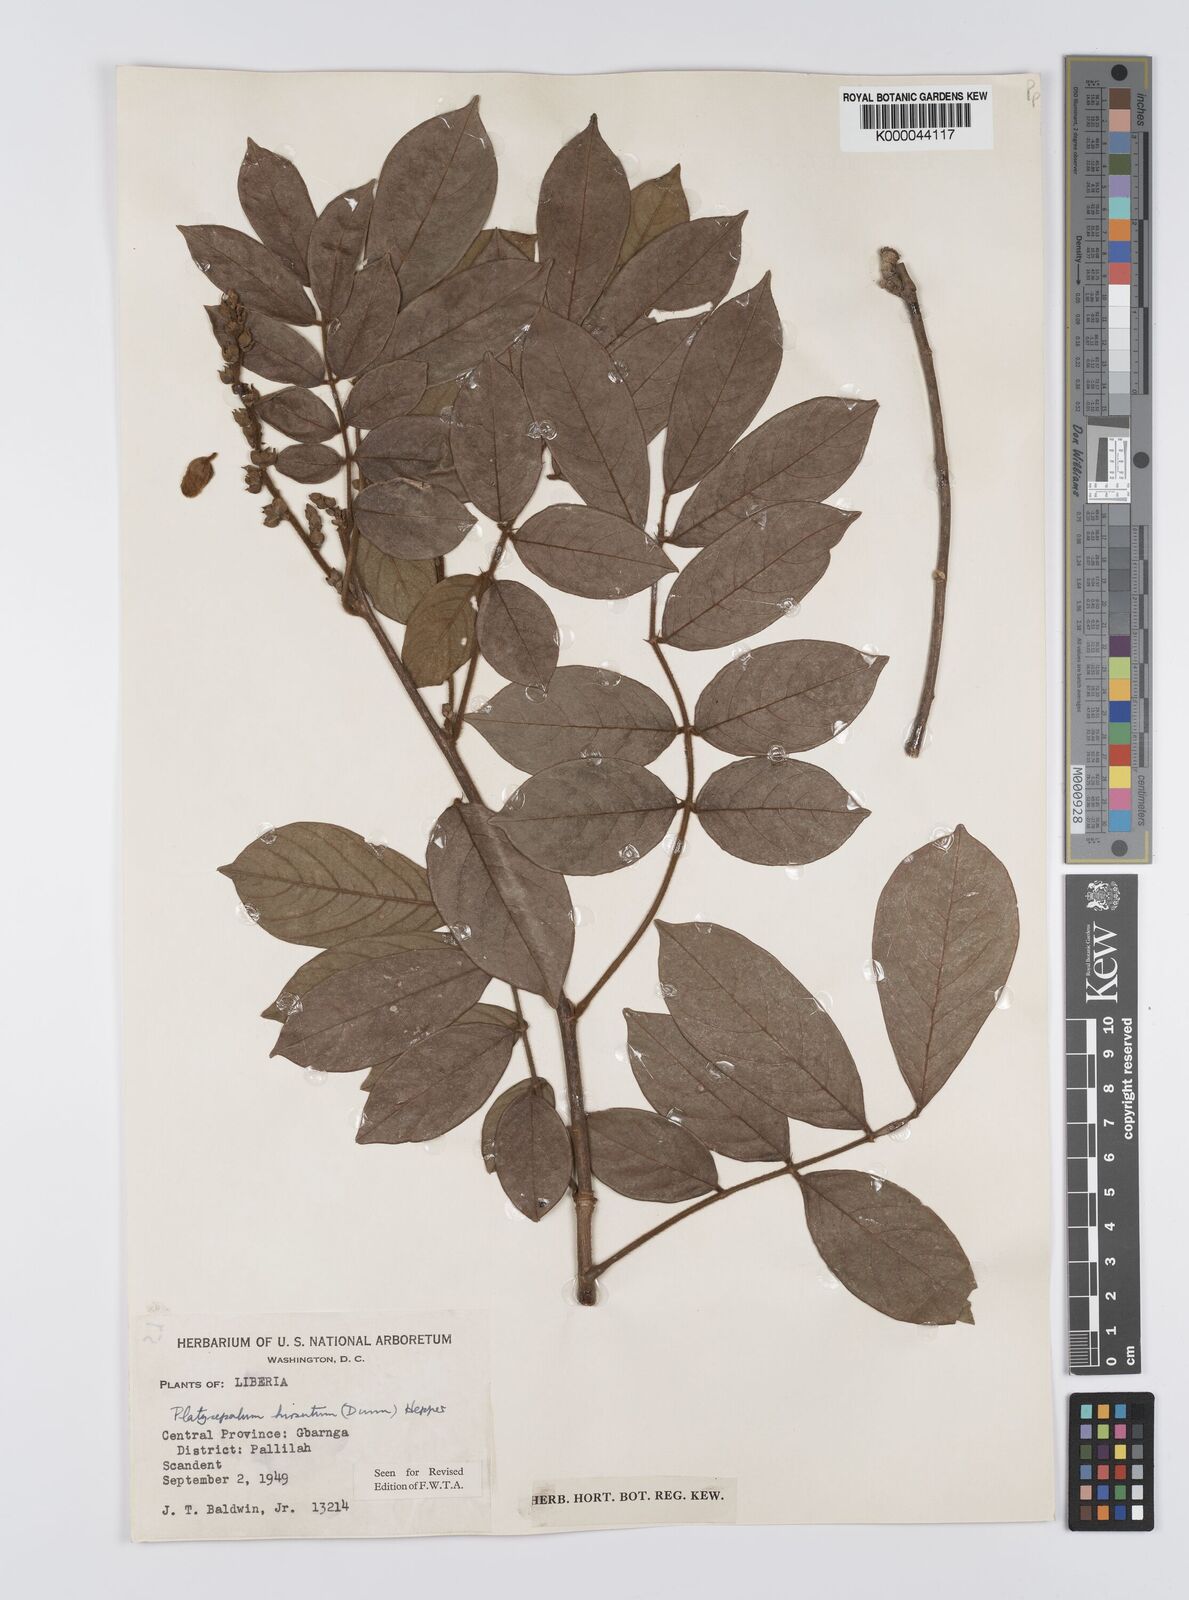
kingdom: Plantae
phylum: Tracheophyta
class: Magnoliopsida
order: Fabales
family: Fabaceae
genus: Platysepalum
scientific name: Platysepalum hirsutum
